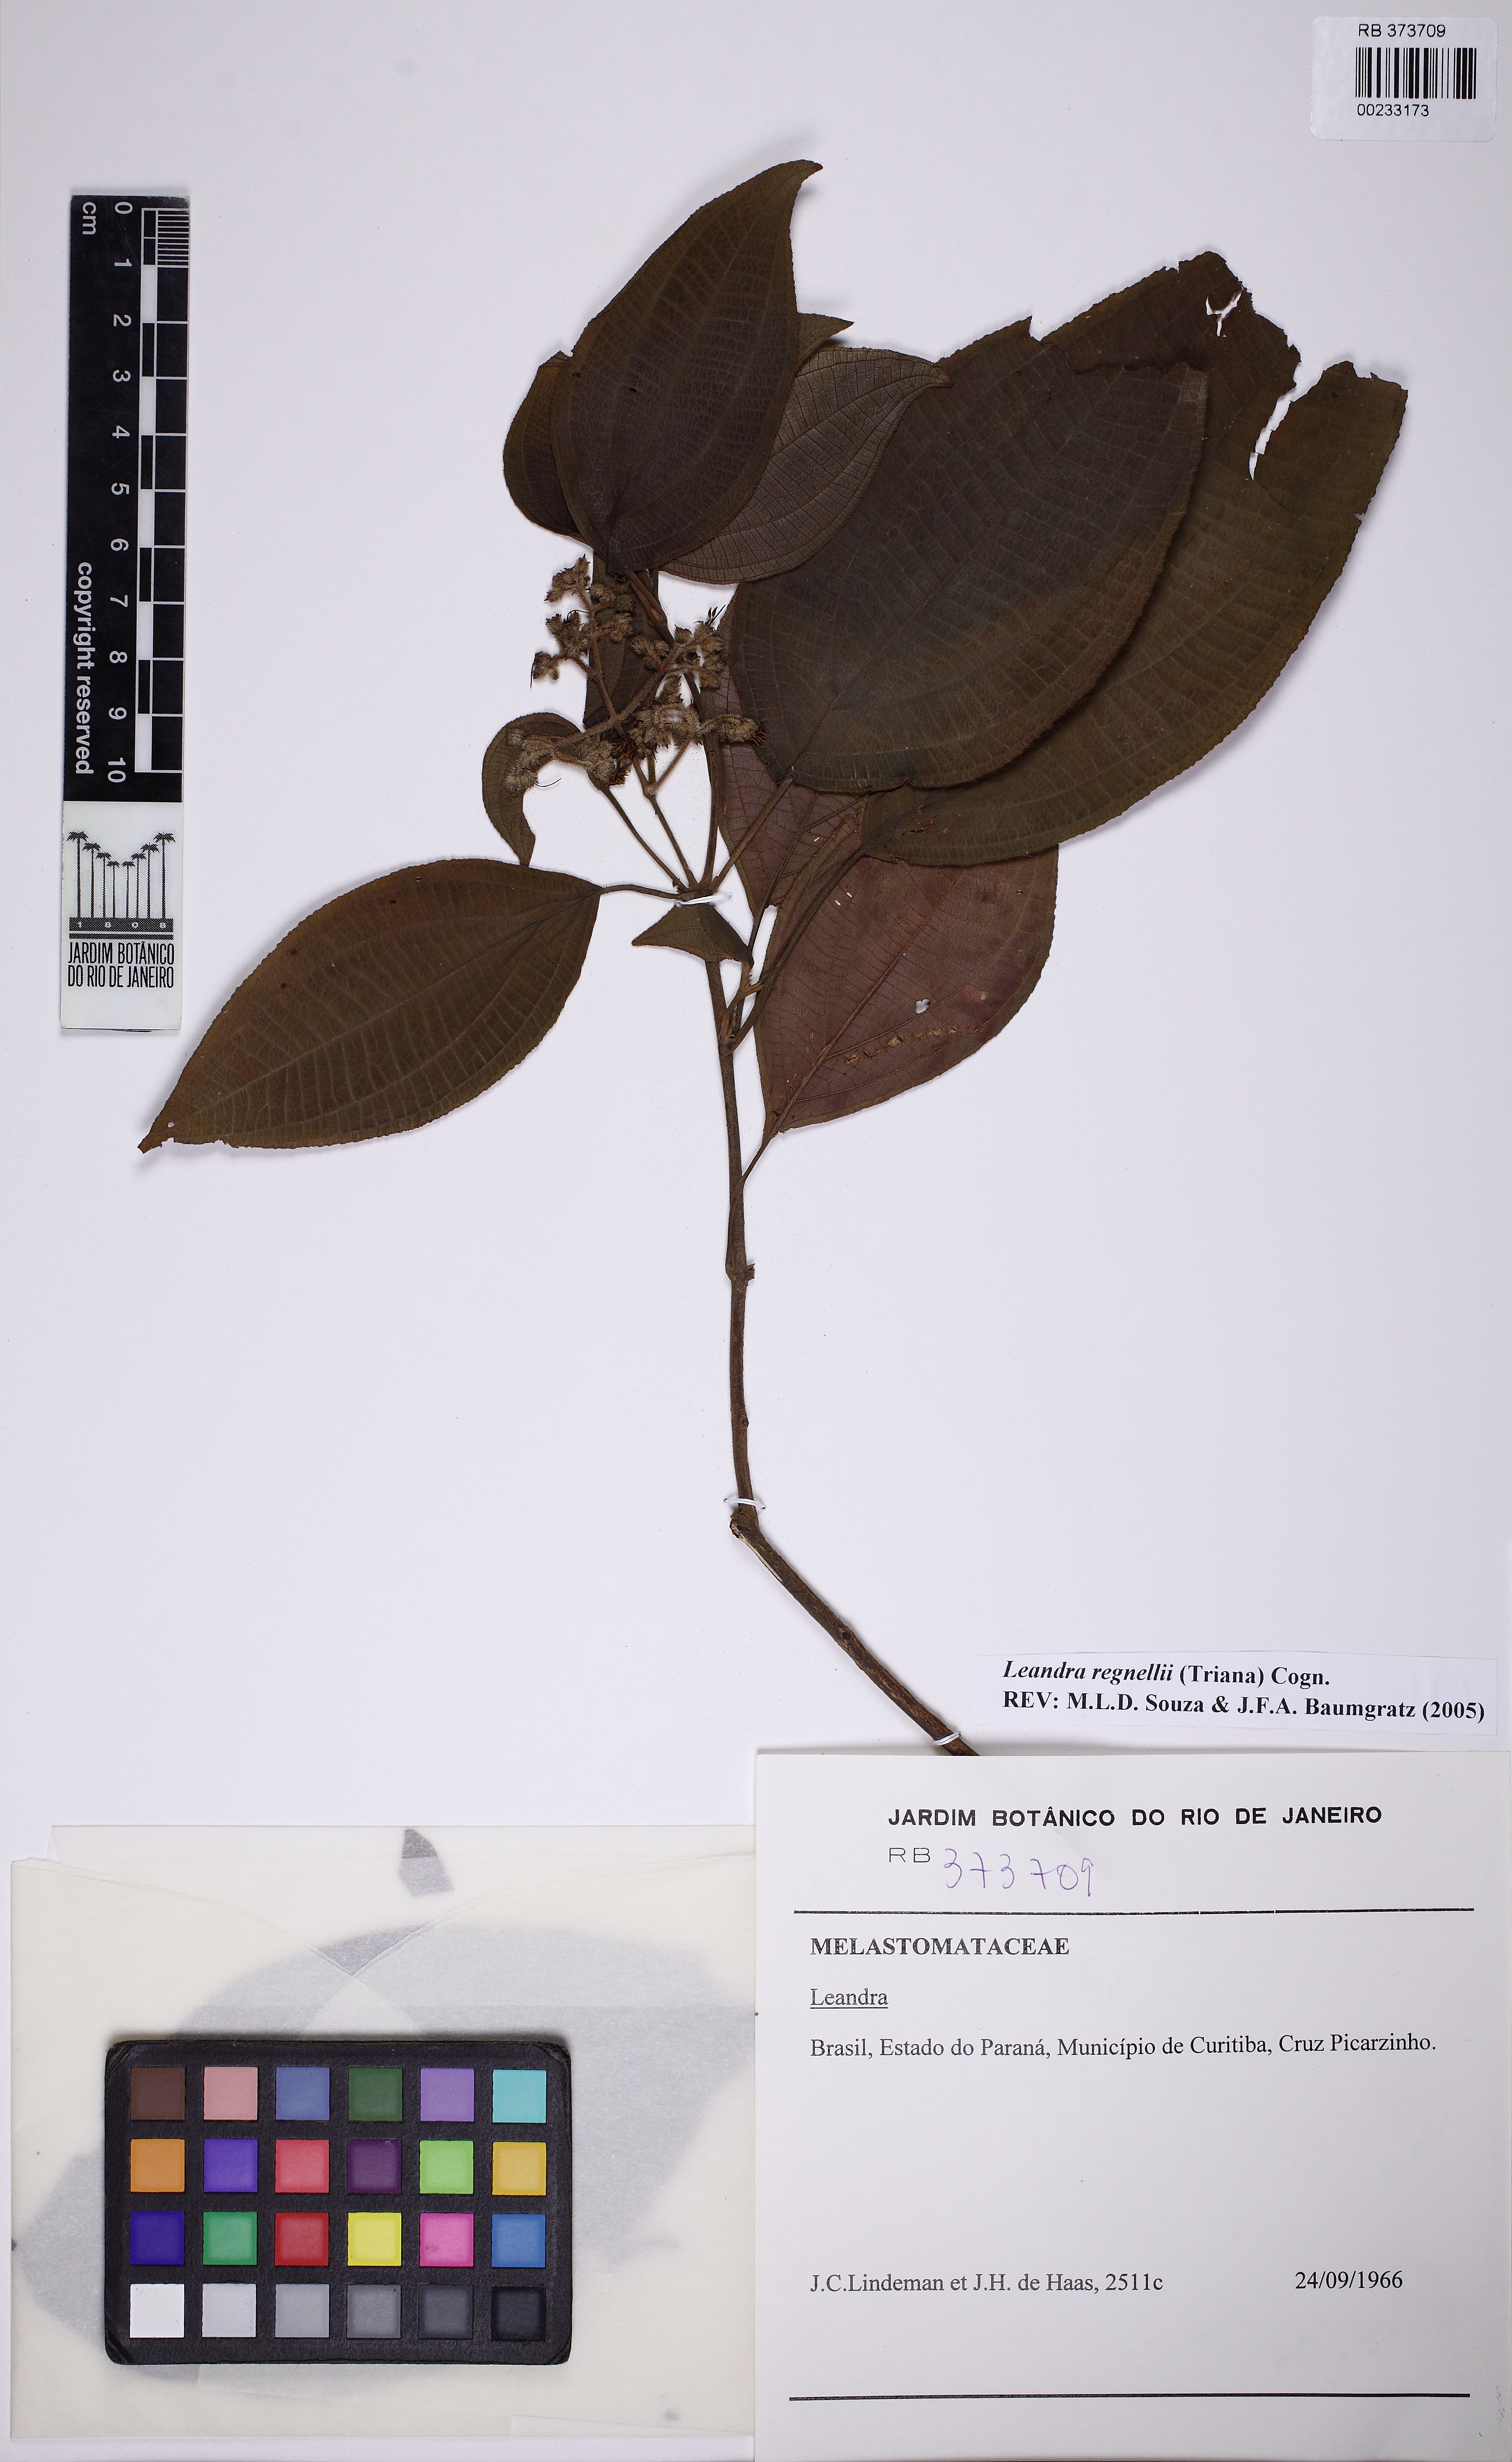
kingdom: Plantae
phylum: Tracheophyta
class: Magnoliopsida
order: Myrtales
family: Melastomataceae
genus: Miconia
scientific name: Miconia alterninervia
